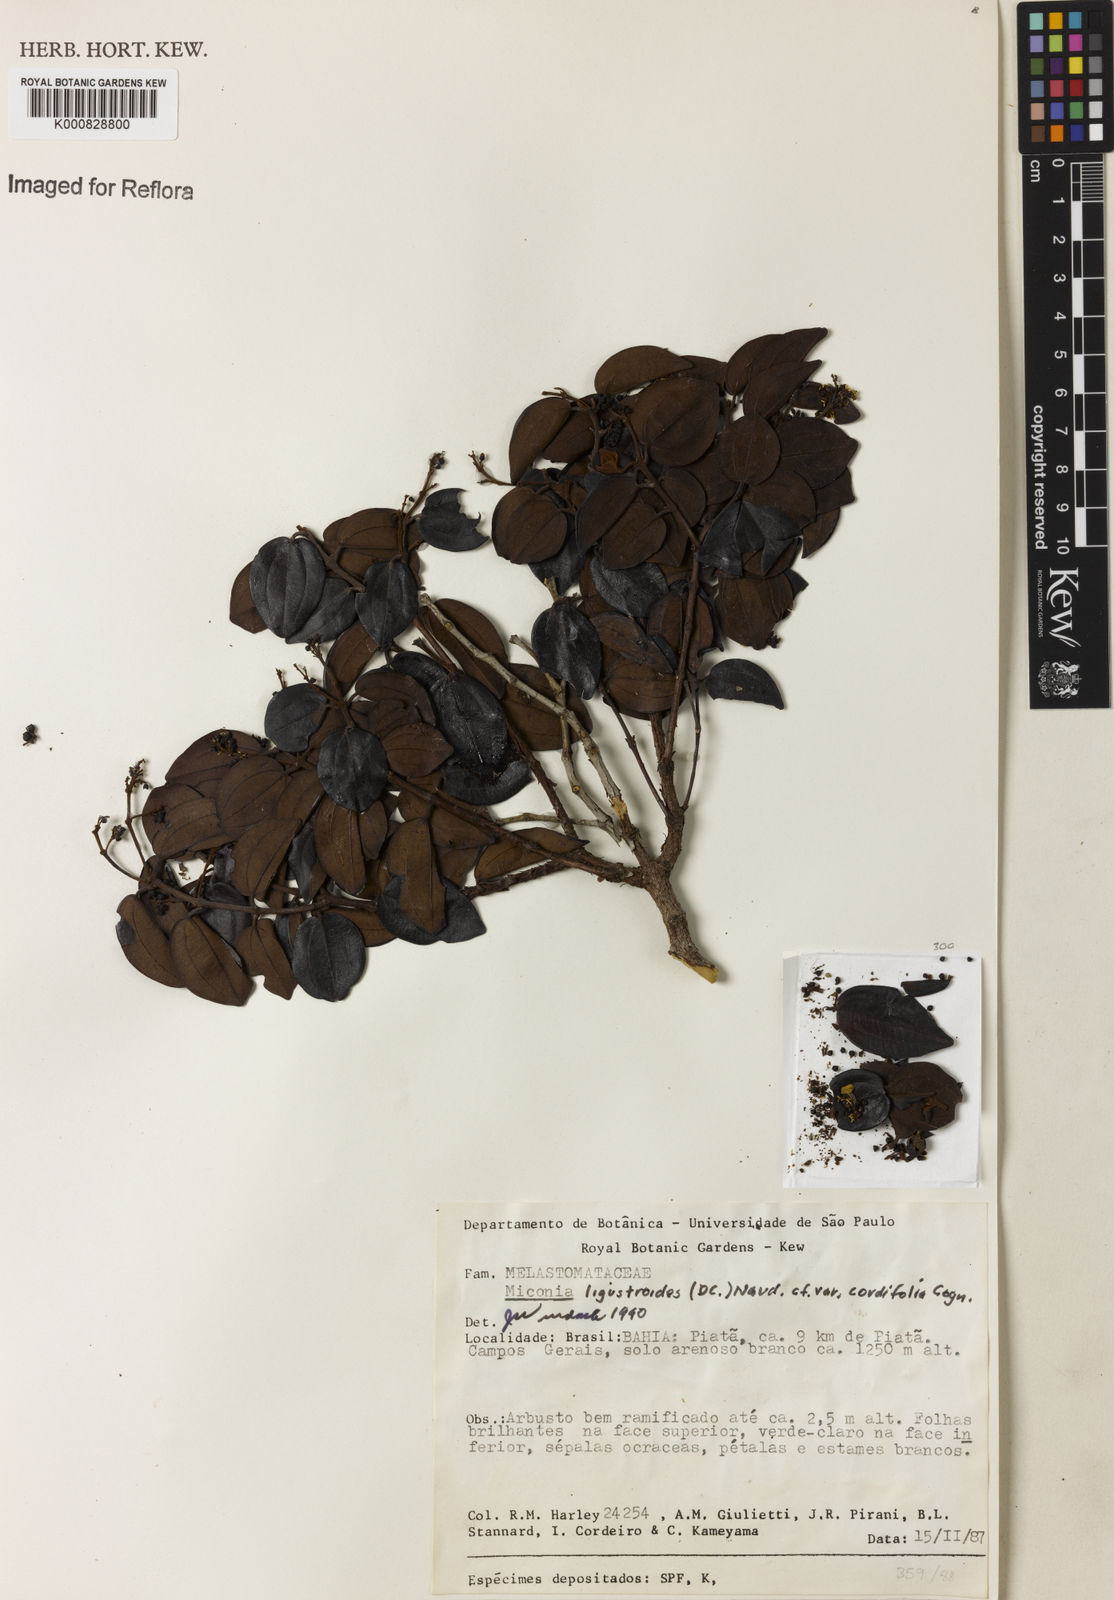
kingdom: Plantae
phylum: Tracheophyta
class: Magnoliopsida
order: Myrtales
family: Melastomataceae
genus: Miconia
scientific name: Miconia ligustroides
